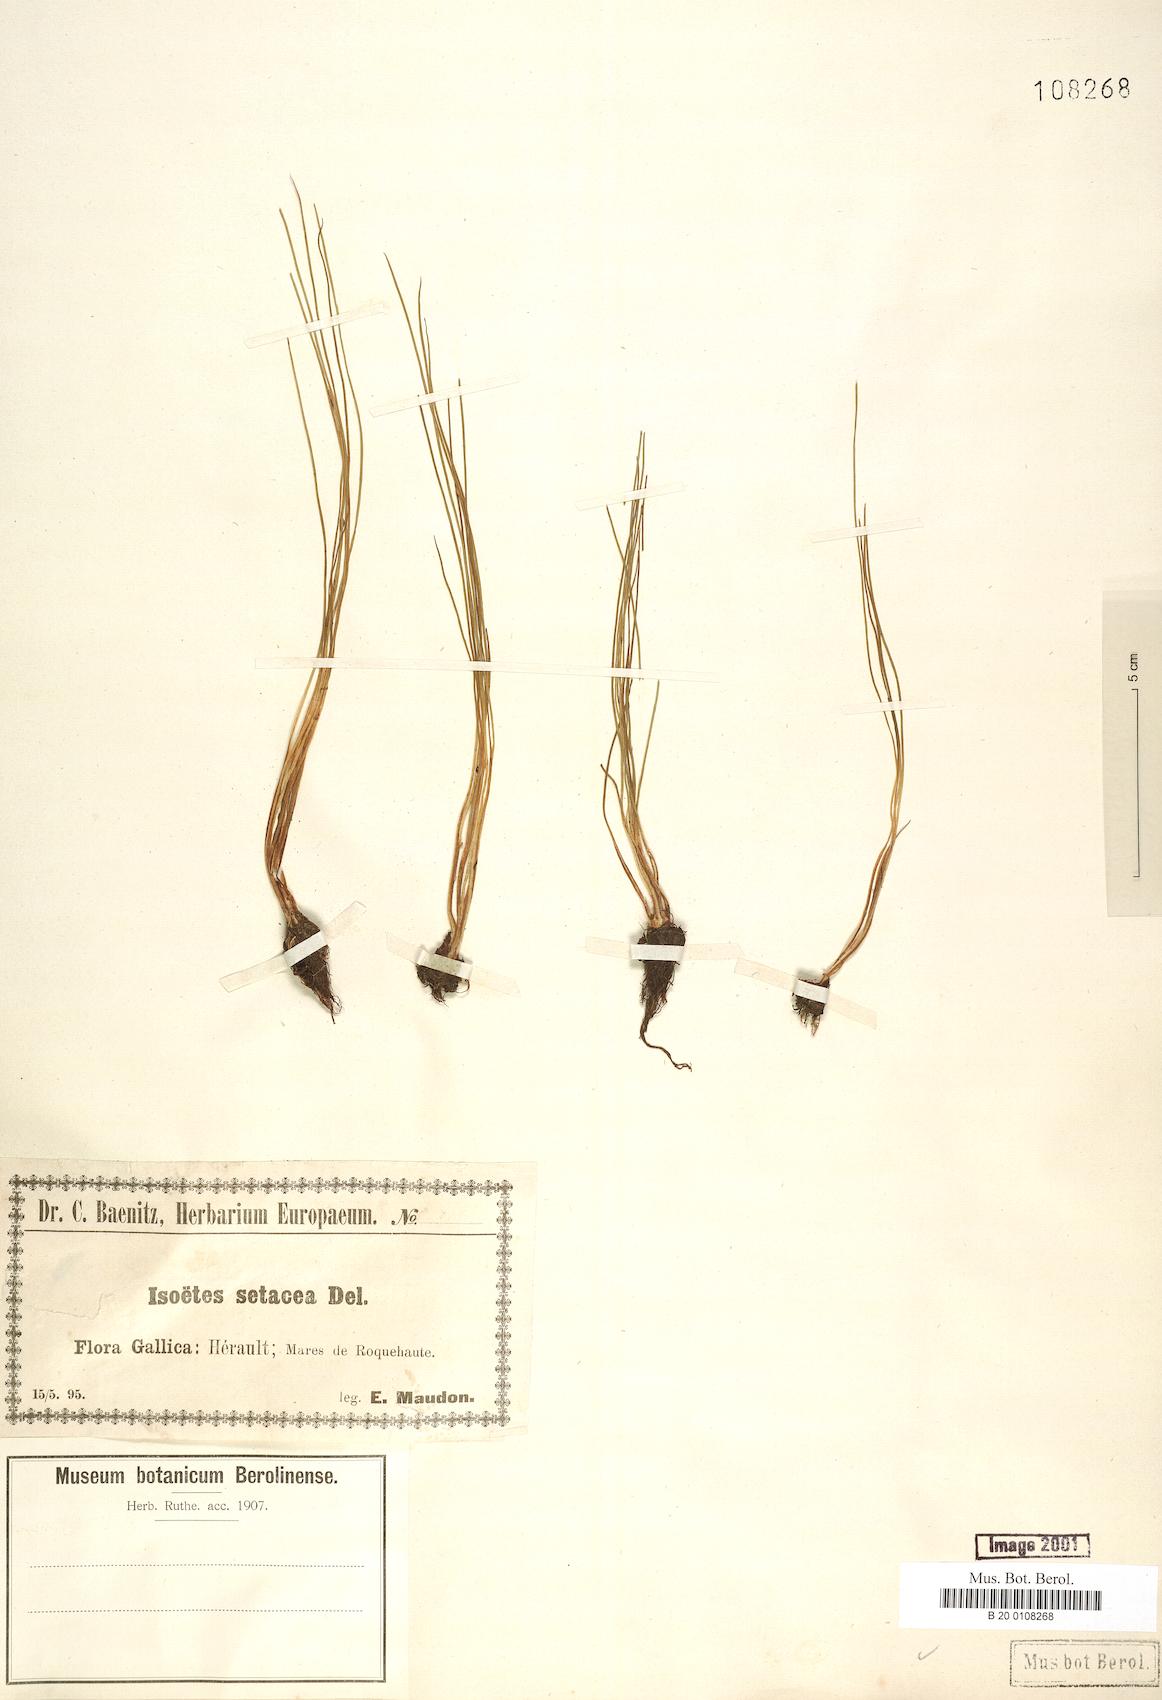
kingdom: Plantae
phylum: Tracheophyta
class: Lycopodiopsida
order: Isoetales
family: Isoetaceae
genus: Isoetes
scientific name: Isoetes lacustris
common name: Common quillwort
